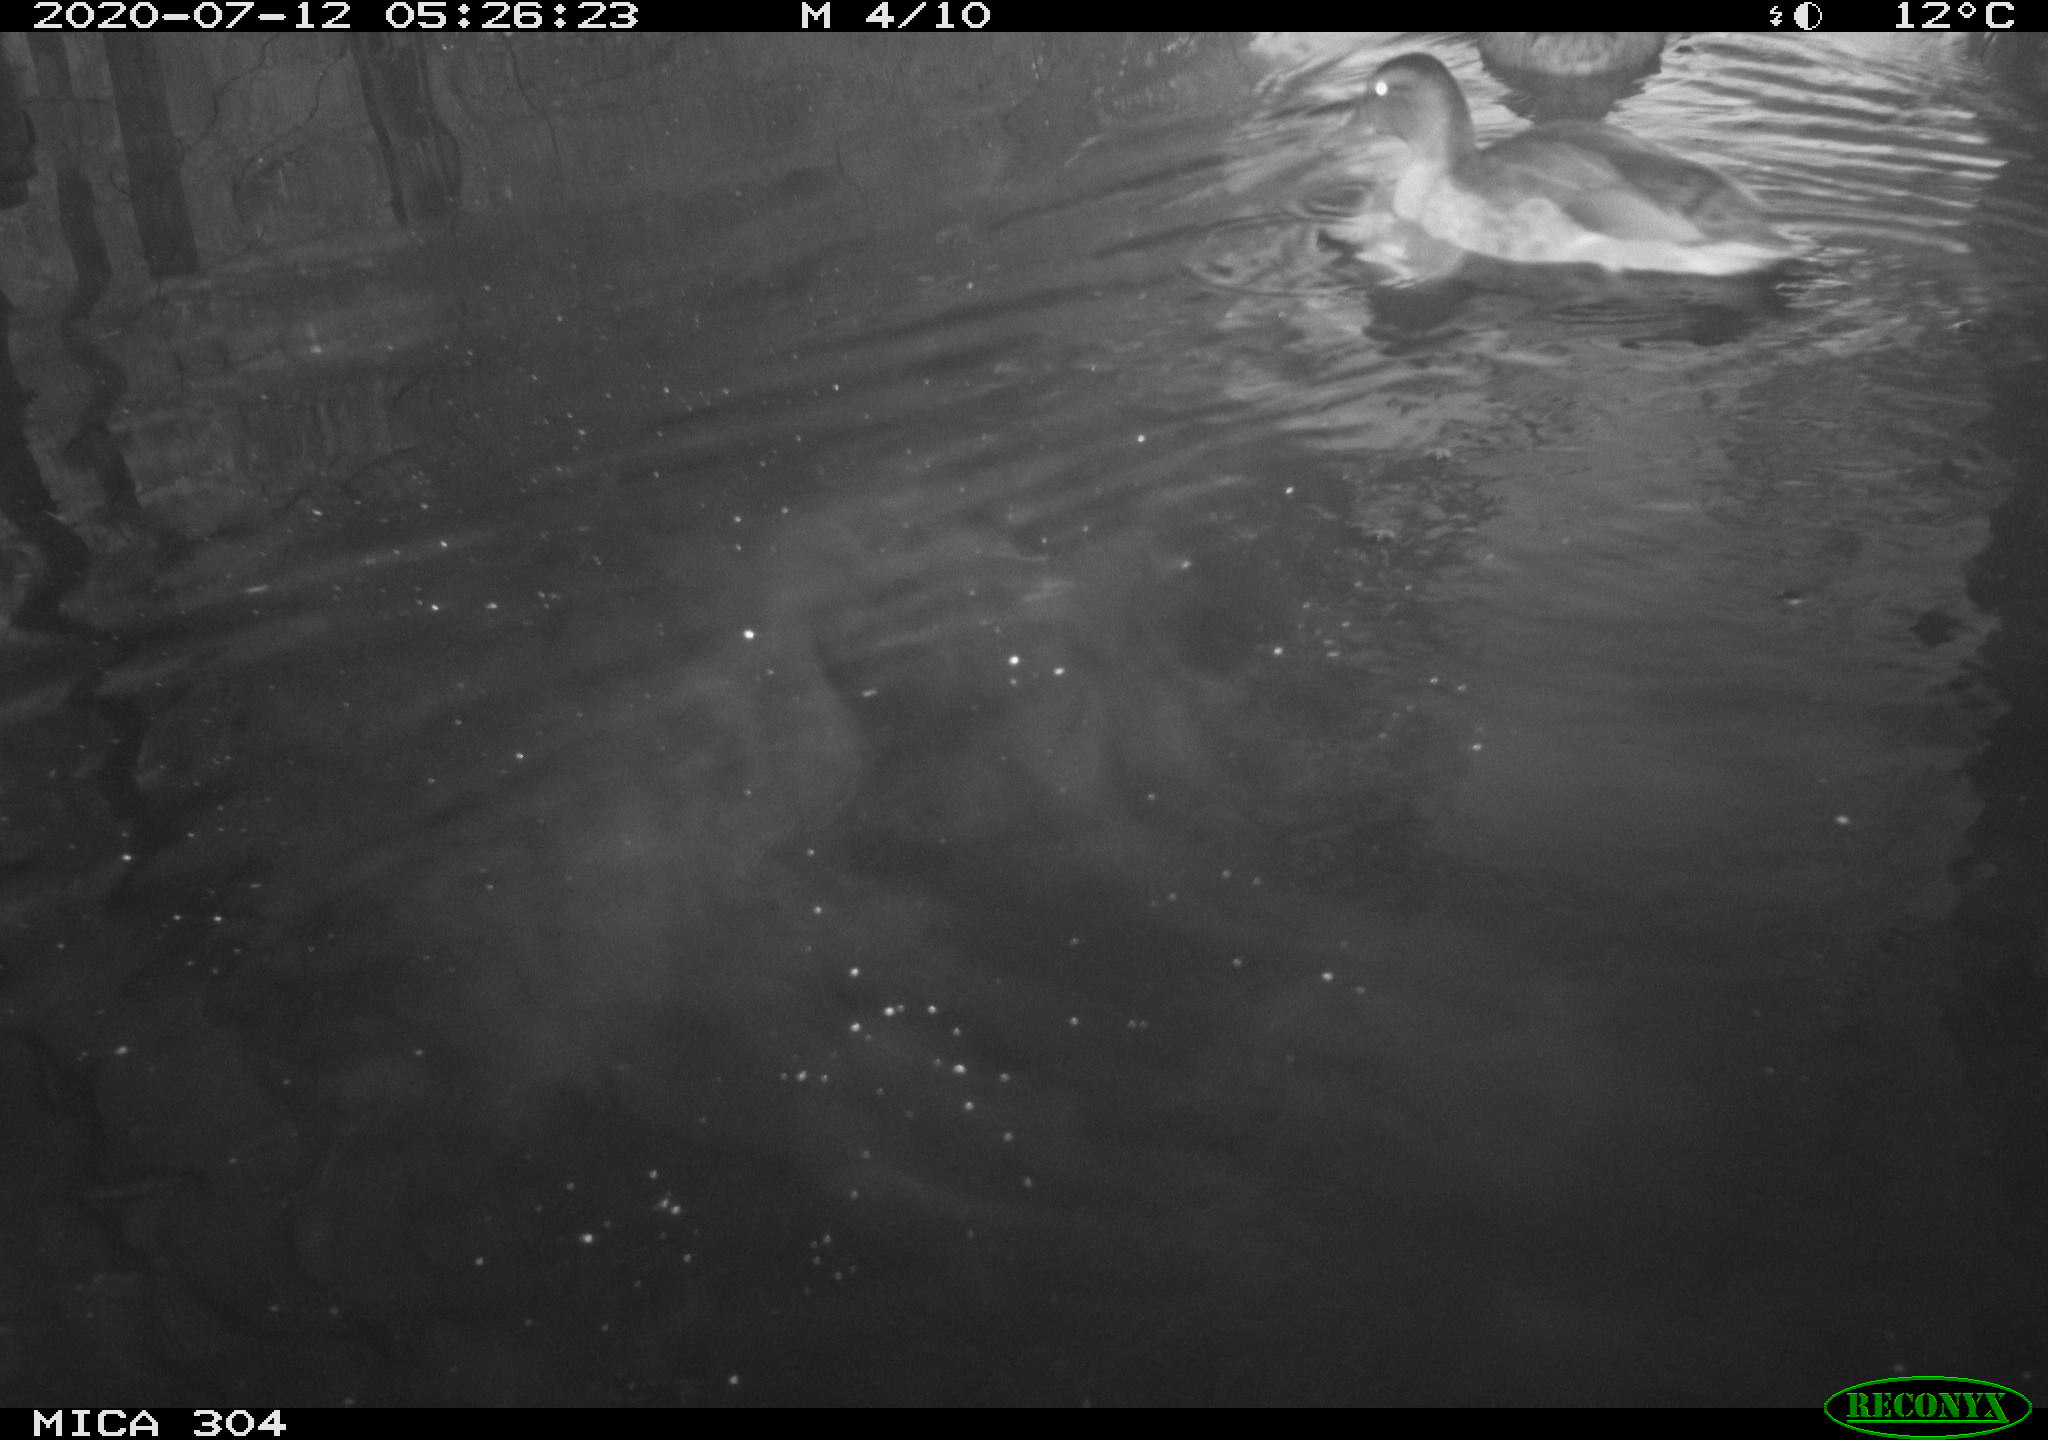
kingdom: Animalia
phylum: Chordata
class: Aves
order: Anseriformes
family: Anatidae
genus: Anas
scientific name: Anas platyrhynchos
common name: Mallard
